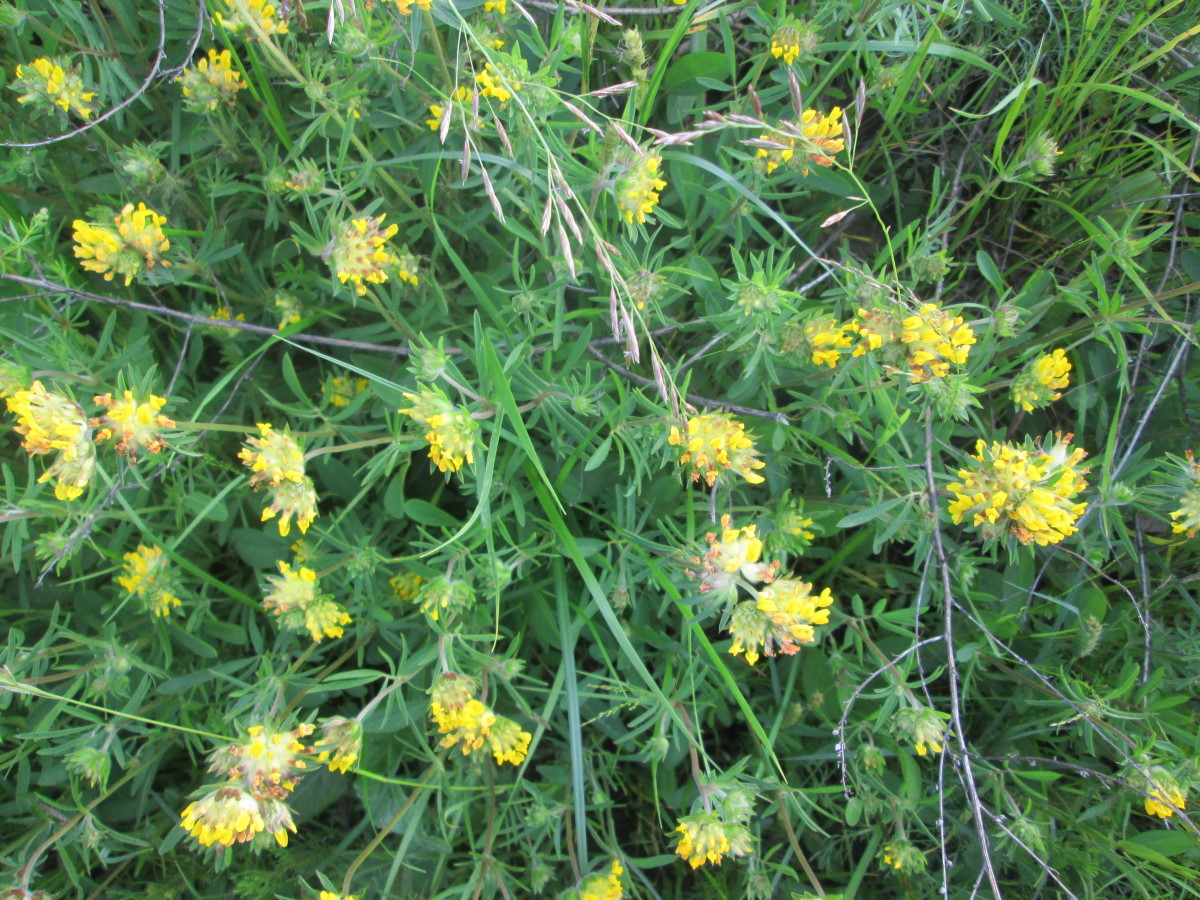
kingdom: Plantae
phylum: Tracheophyta
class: Magnoliopsida
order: Fabales
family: Fabaceae
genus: Anthyllis
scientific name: Anthyllis vulneraria
